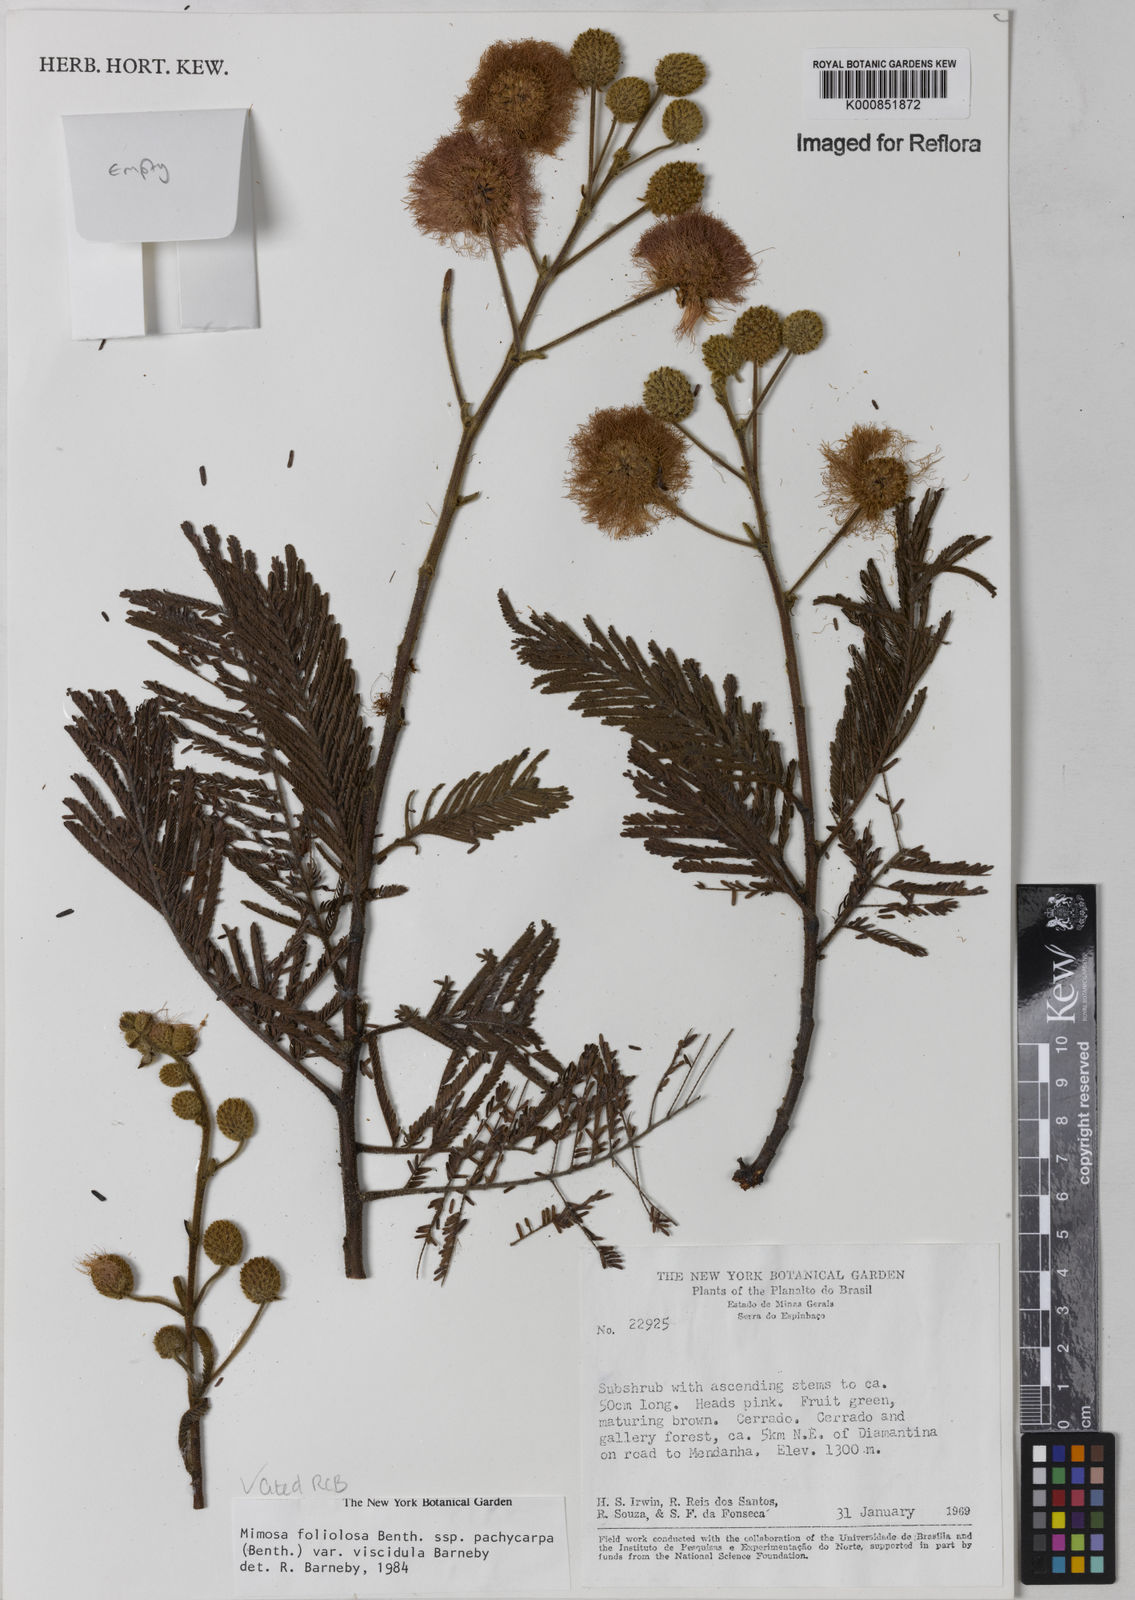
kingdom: Plantae
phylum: Tracheophyta
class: Magnoliopsida
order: Fabales
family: Fabaceae
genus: Mimosa
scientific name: Mimosa foliolosa
